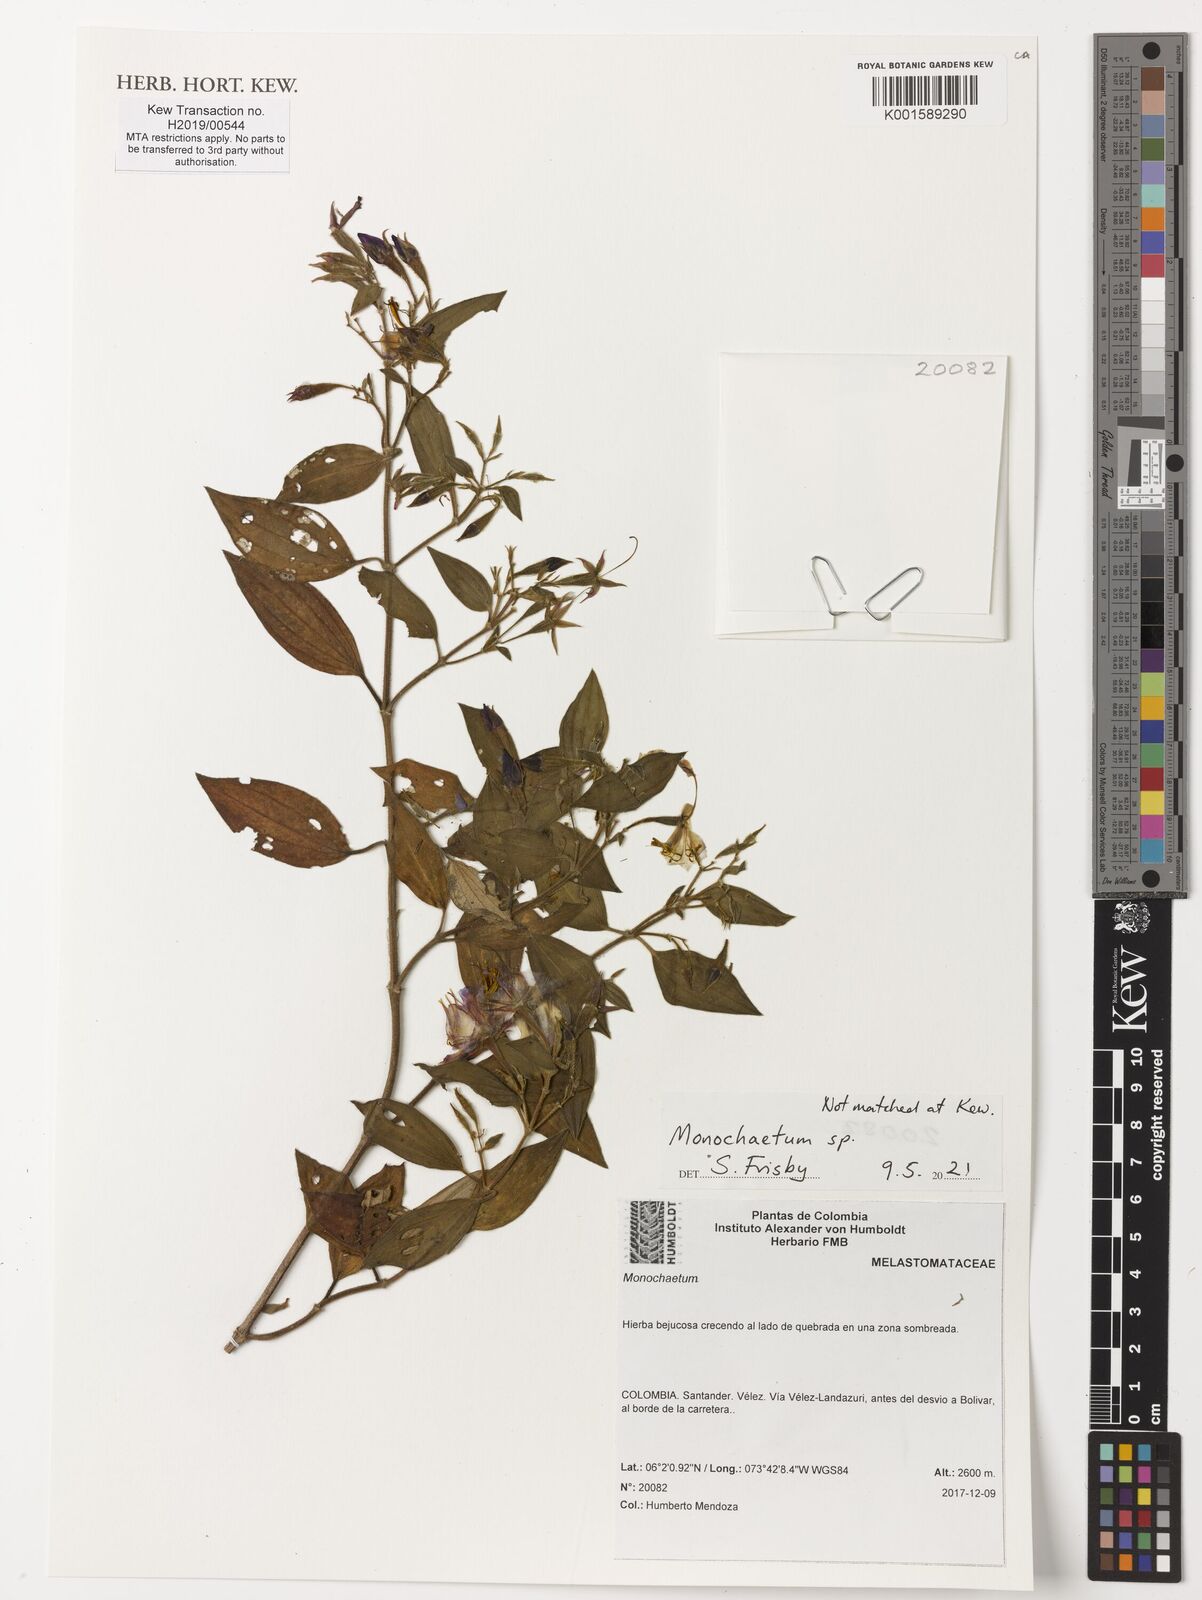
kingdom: Plantae
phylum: Tracheophyta
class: Magnoliopsida
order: Myrtales
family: Melastomataceae
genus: Monochaetum
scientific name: Monochaetum
